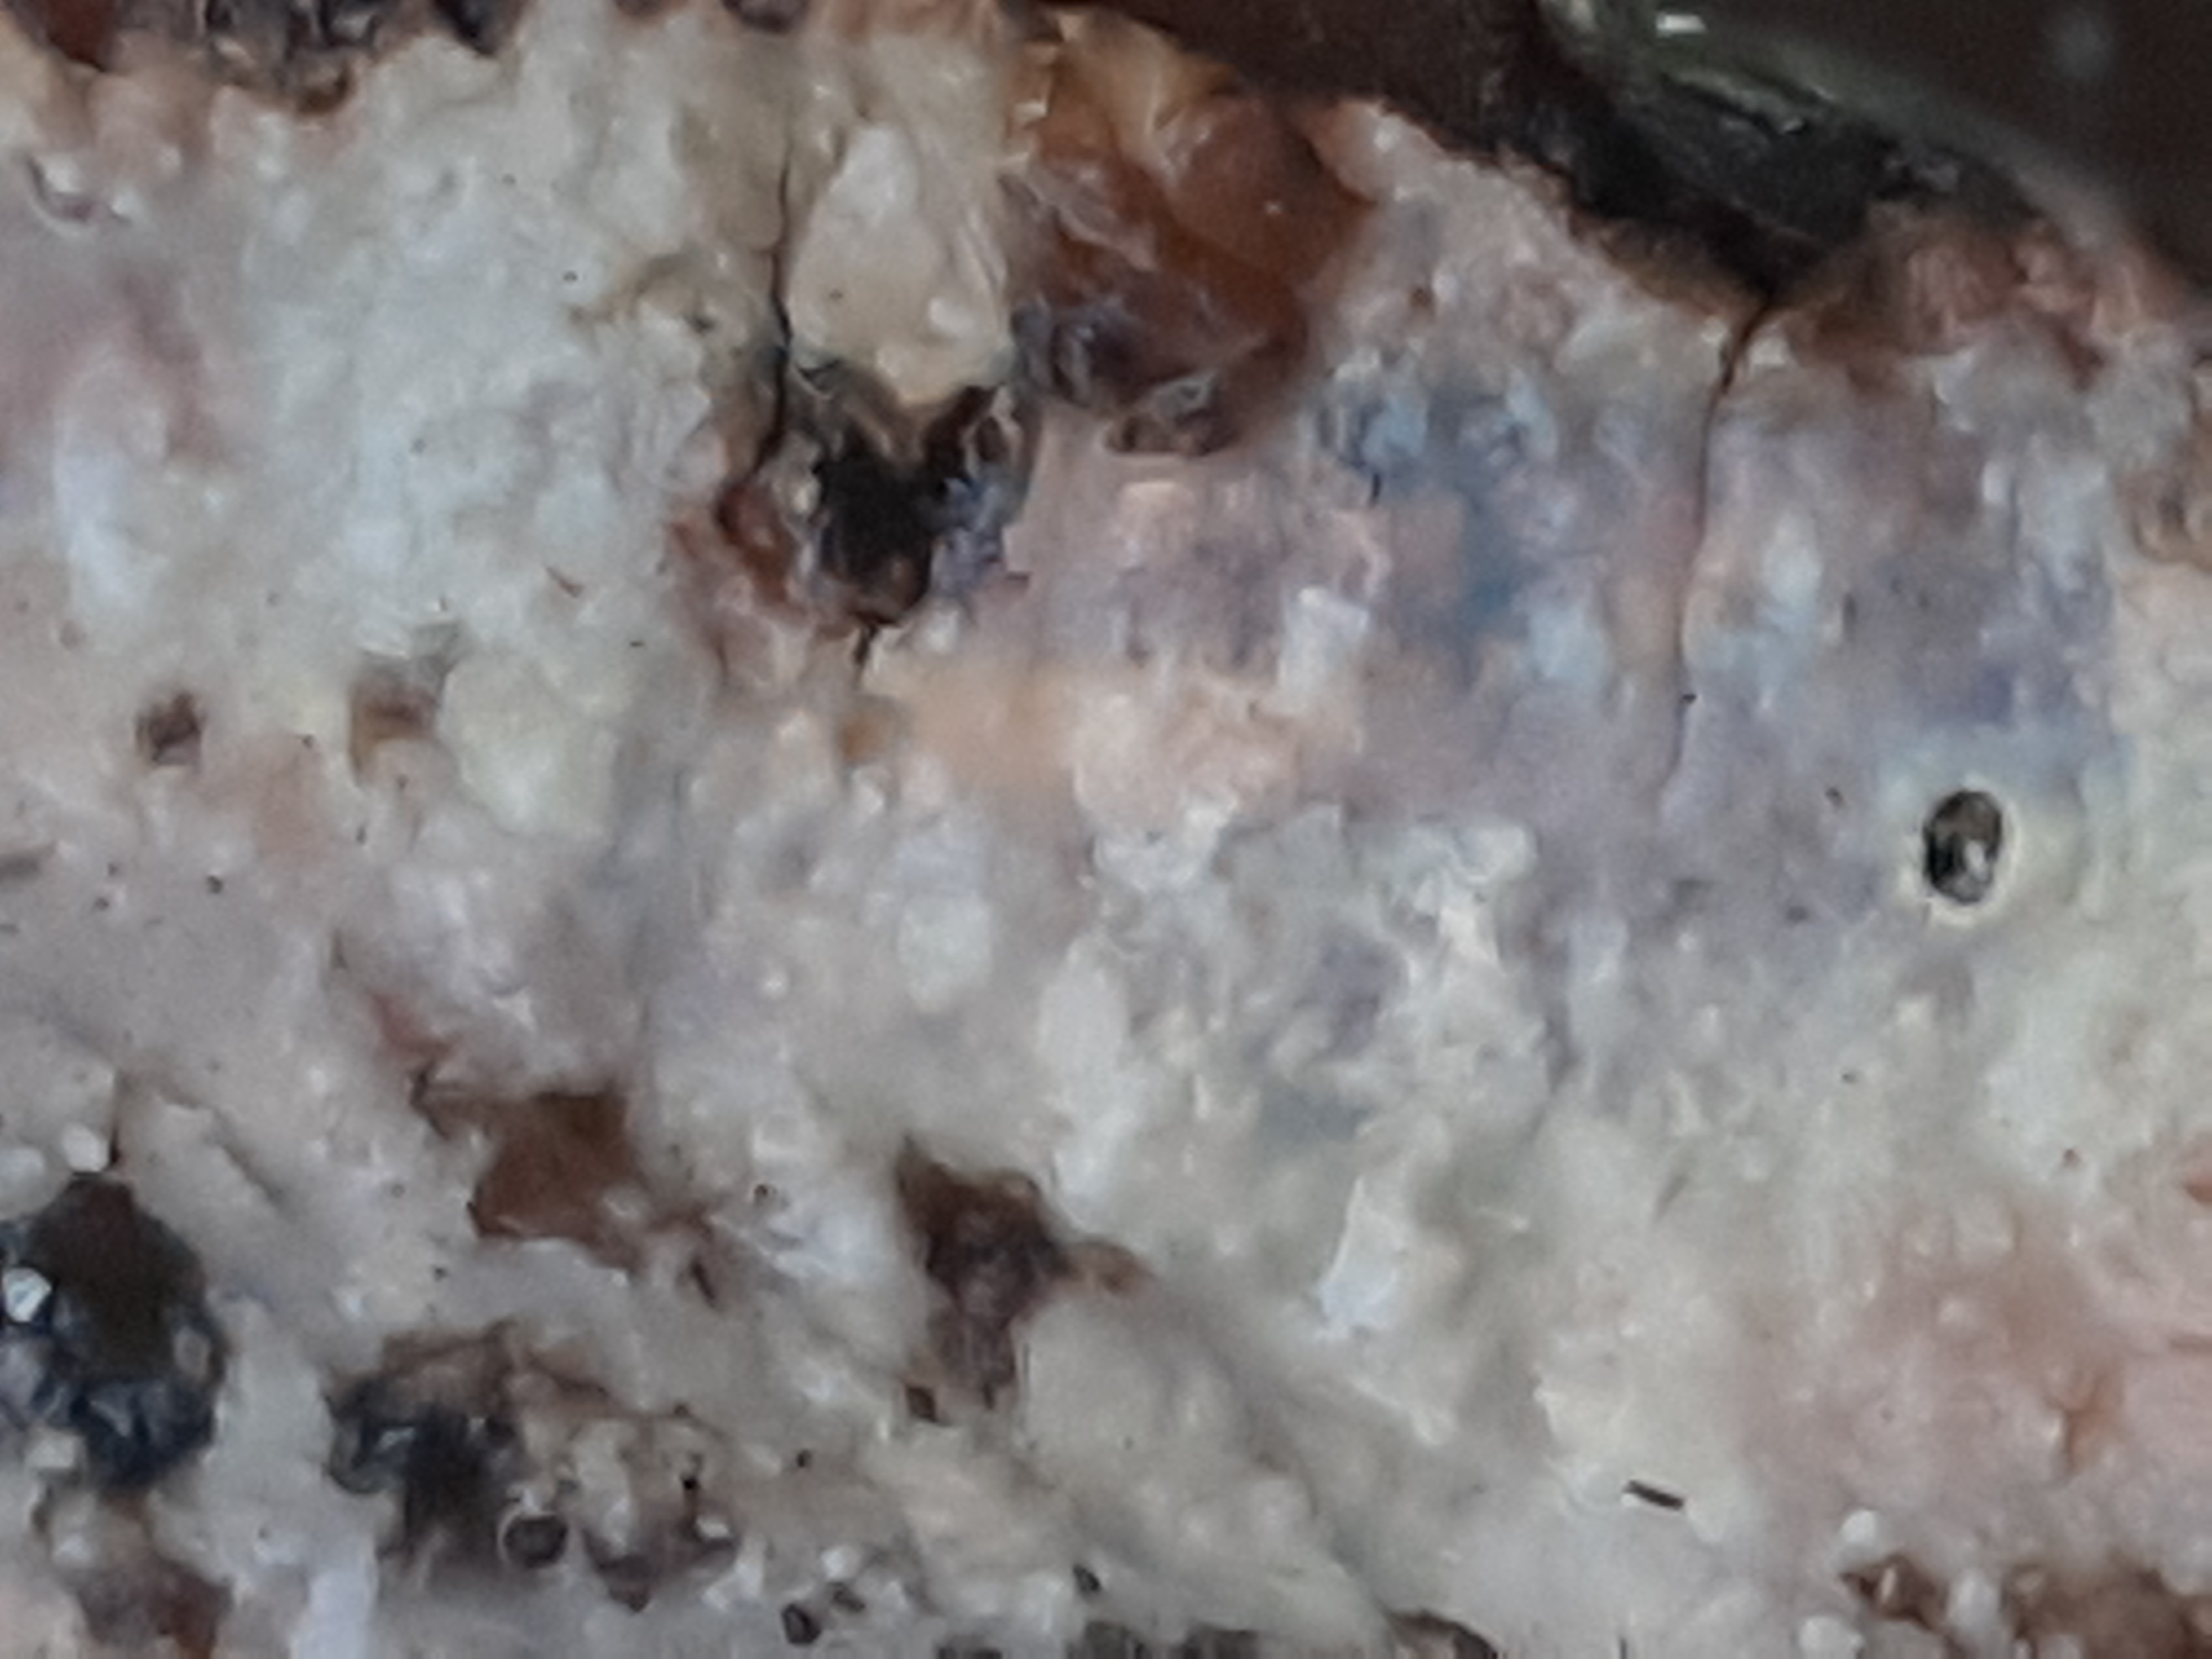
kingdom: Fungi
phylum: Basidiomycota
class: Agaricomycetes
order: Corticiales
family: Vuilleminiaceae
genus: Vuilleminia
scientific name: Vuilleminia comedens
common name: almindelig barksprænger
